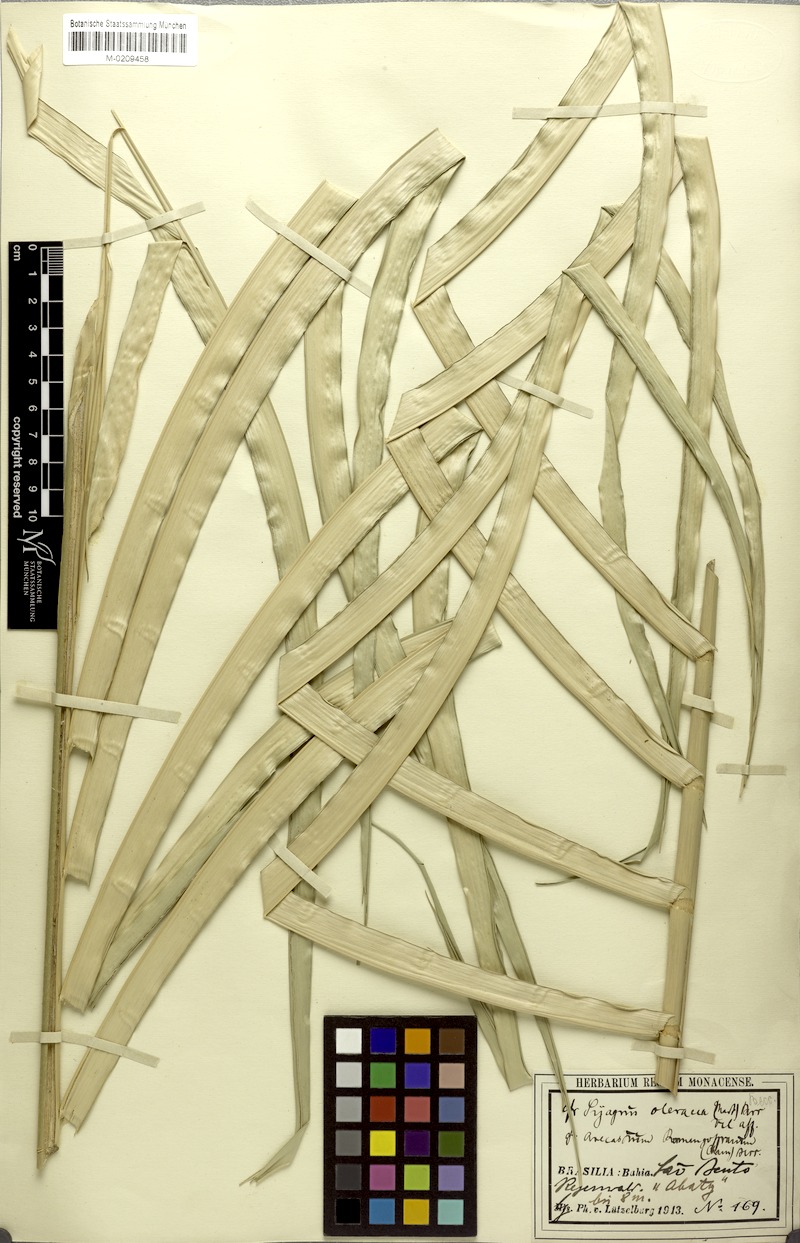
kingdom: Plantae
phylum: Tracheophyta
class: Liliopsida
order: Arecales
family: Arecaceae
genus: Syagrus
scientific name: Syagrus oleracea
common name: Catole palm
